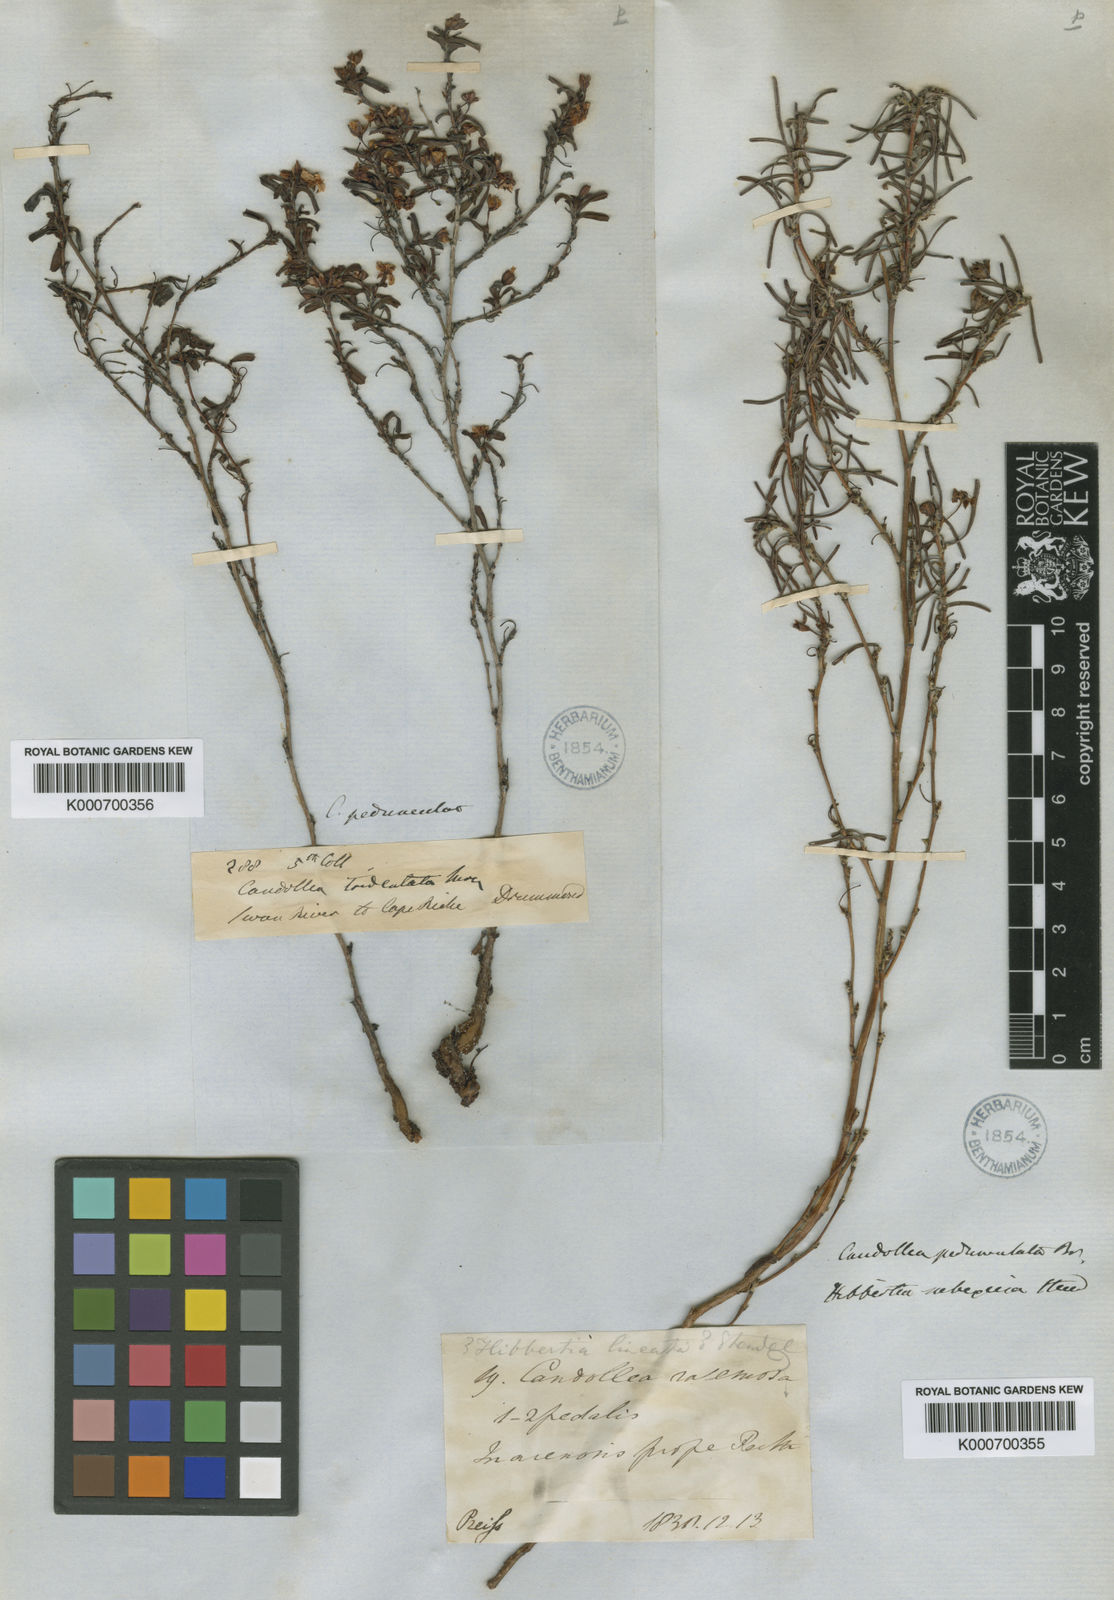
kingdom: Plantae
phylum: Tracheophyta
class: Magnoliopsida
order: Dilleniales
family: Dilleniaceae
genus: Hibbertia
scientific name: Hibbertia pedunculata
